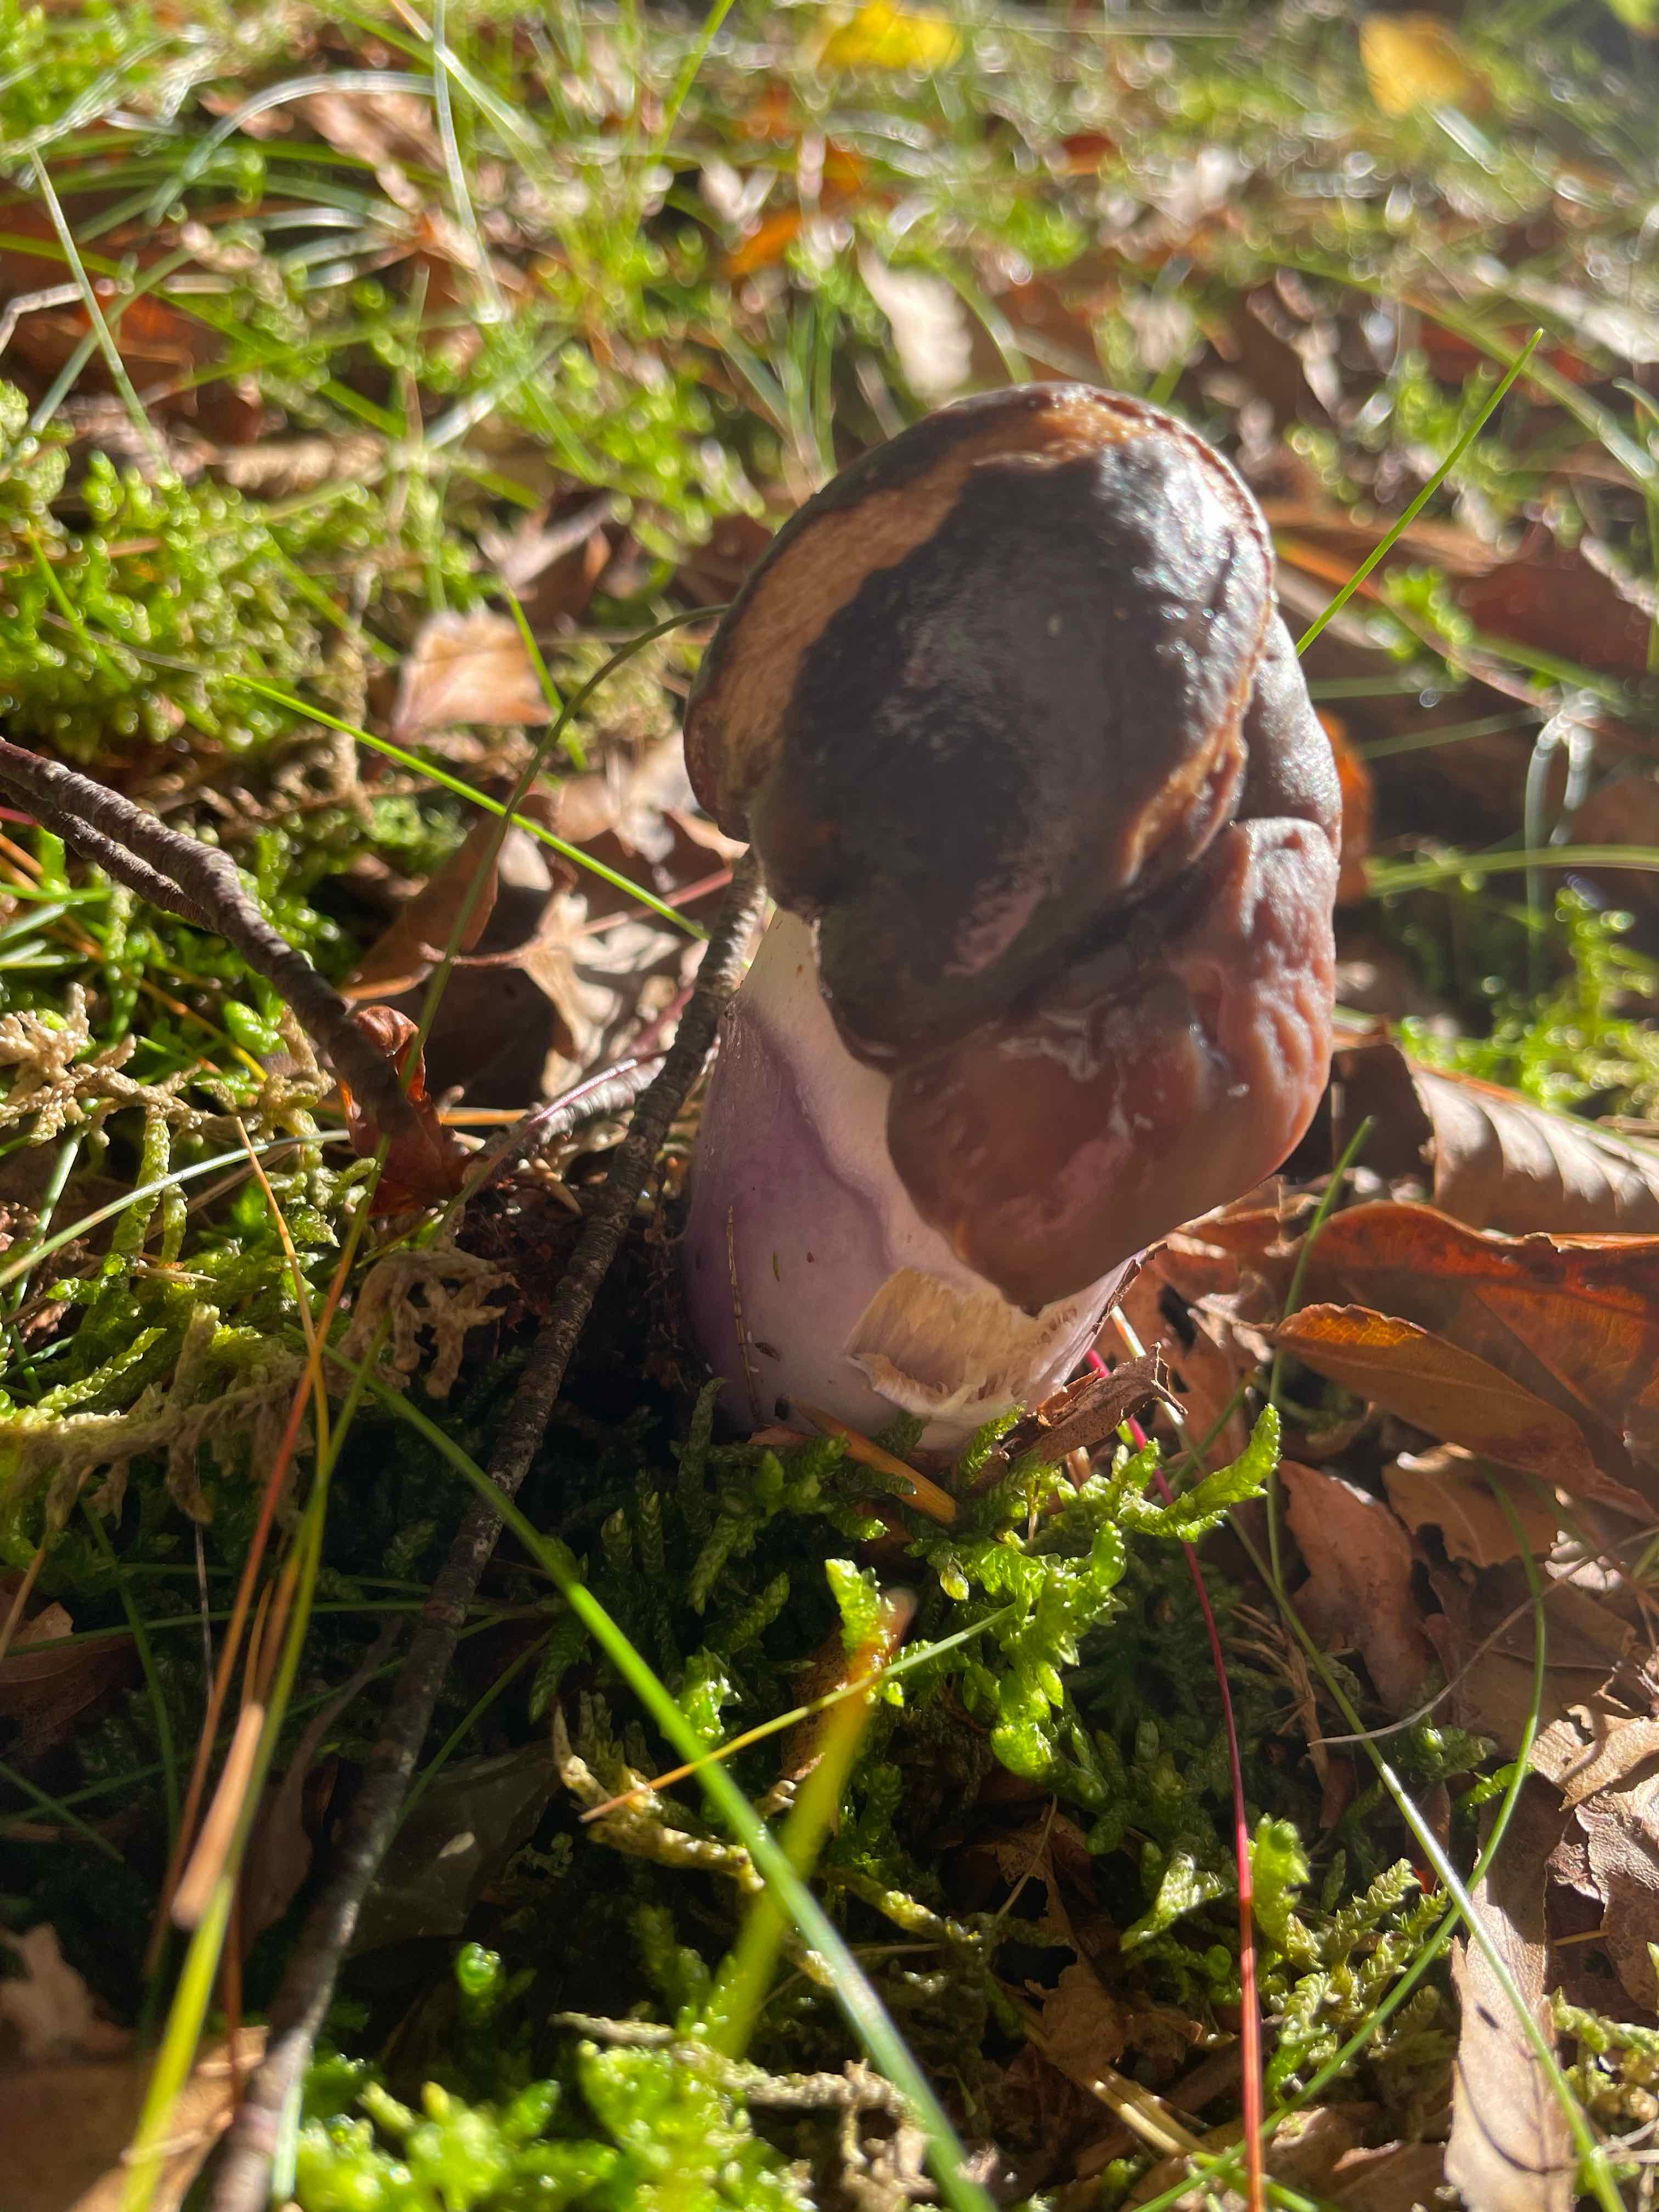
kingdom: Fungi
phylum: Basidiomycota
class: Agaricomycetes
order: Agaricales
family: Cortinariaceae
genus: Cortinarius
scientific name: Cortinarius
